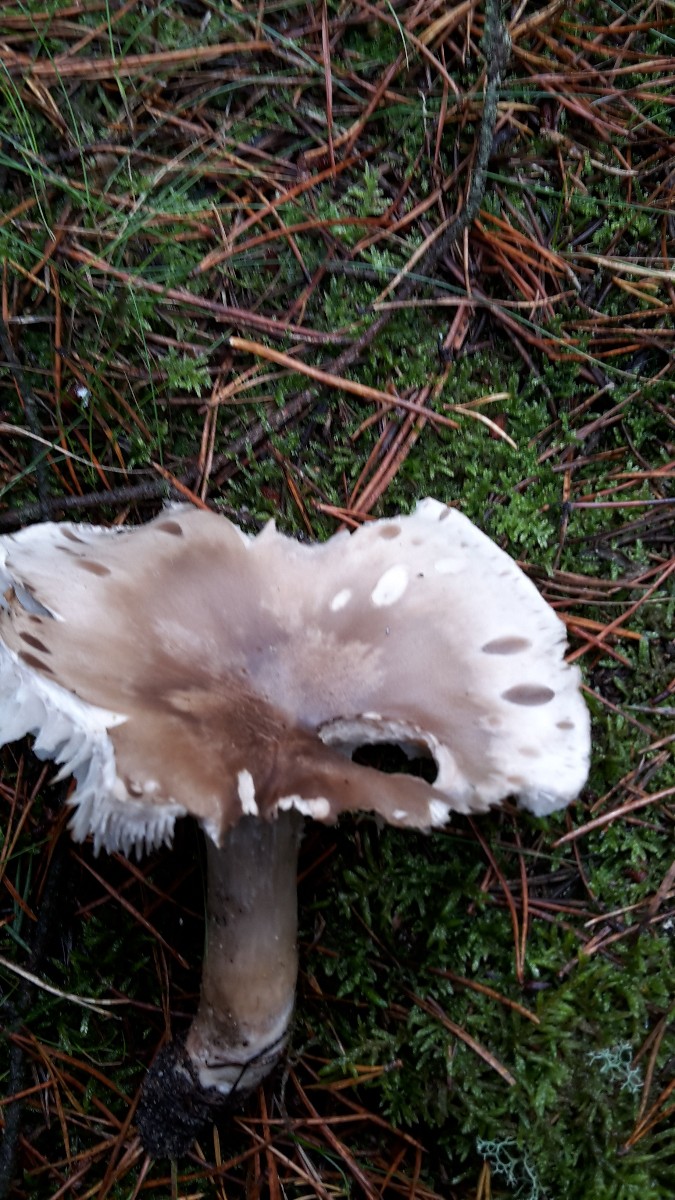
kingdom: Fungi
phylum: Basidiomycota
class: Agaricomycetes
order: Agaricales
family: Tricholomataceae
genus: Tricholoma
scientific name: Tricholoma sudum
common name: tør ridderhat
